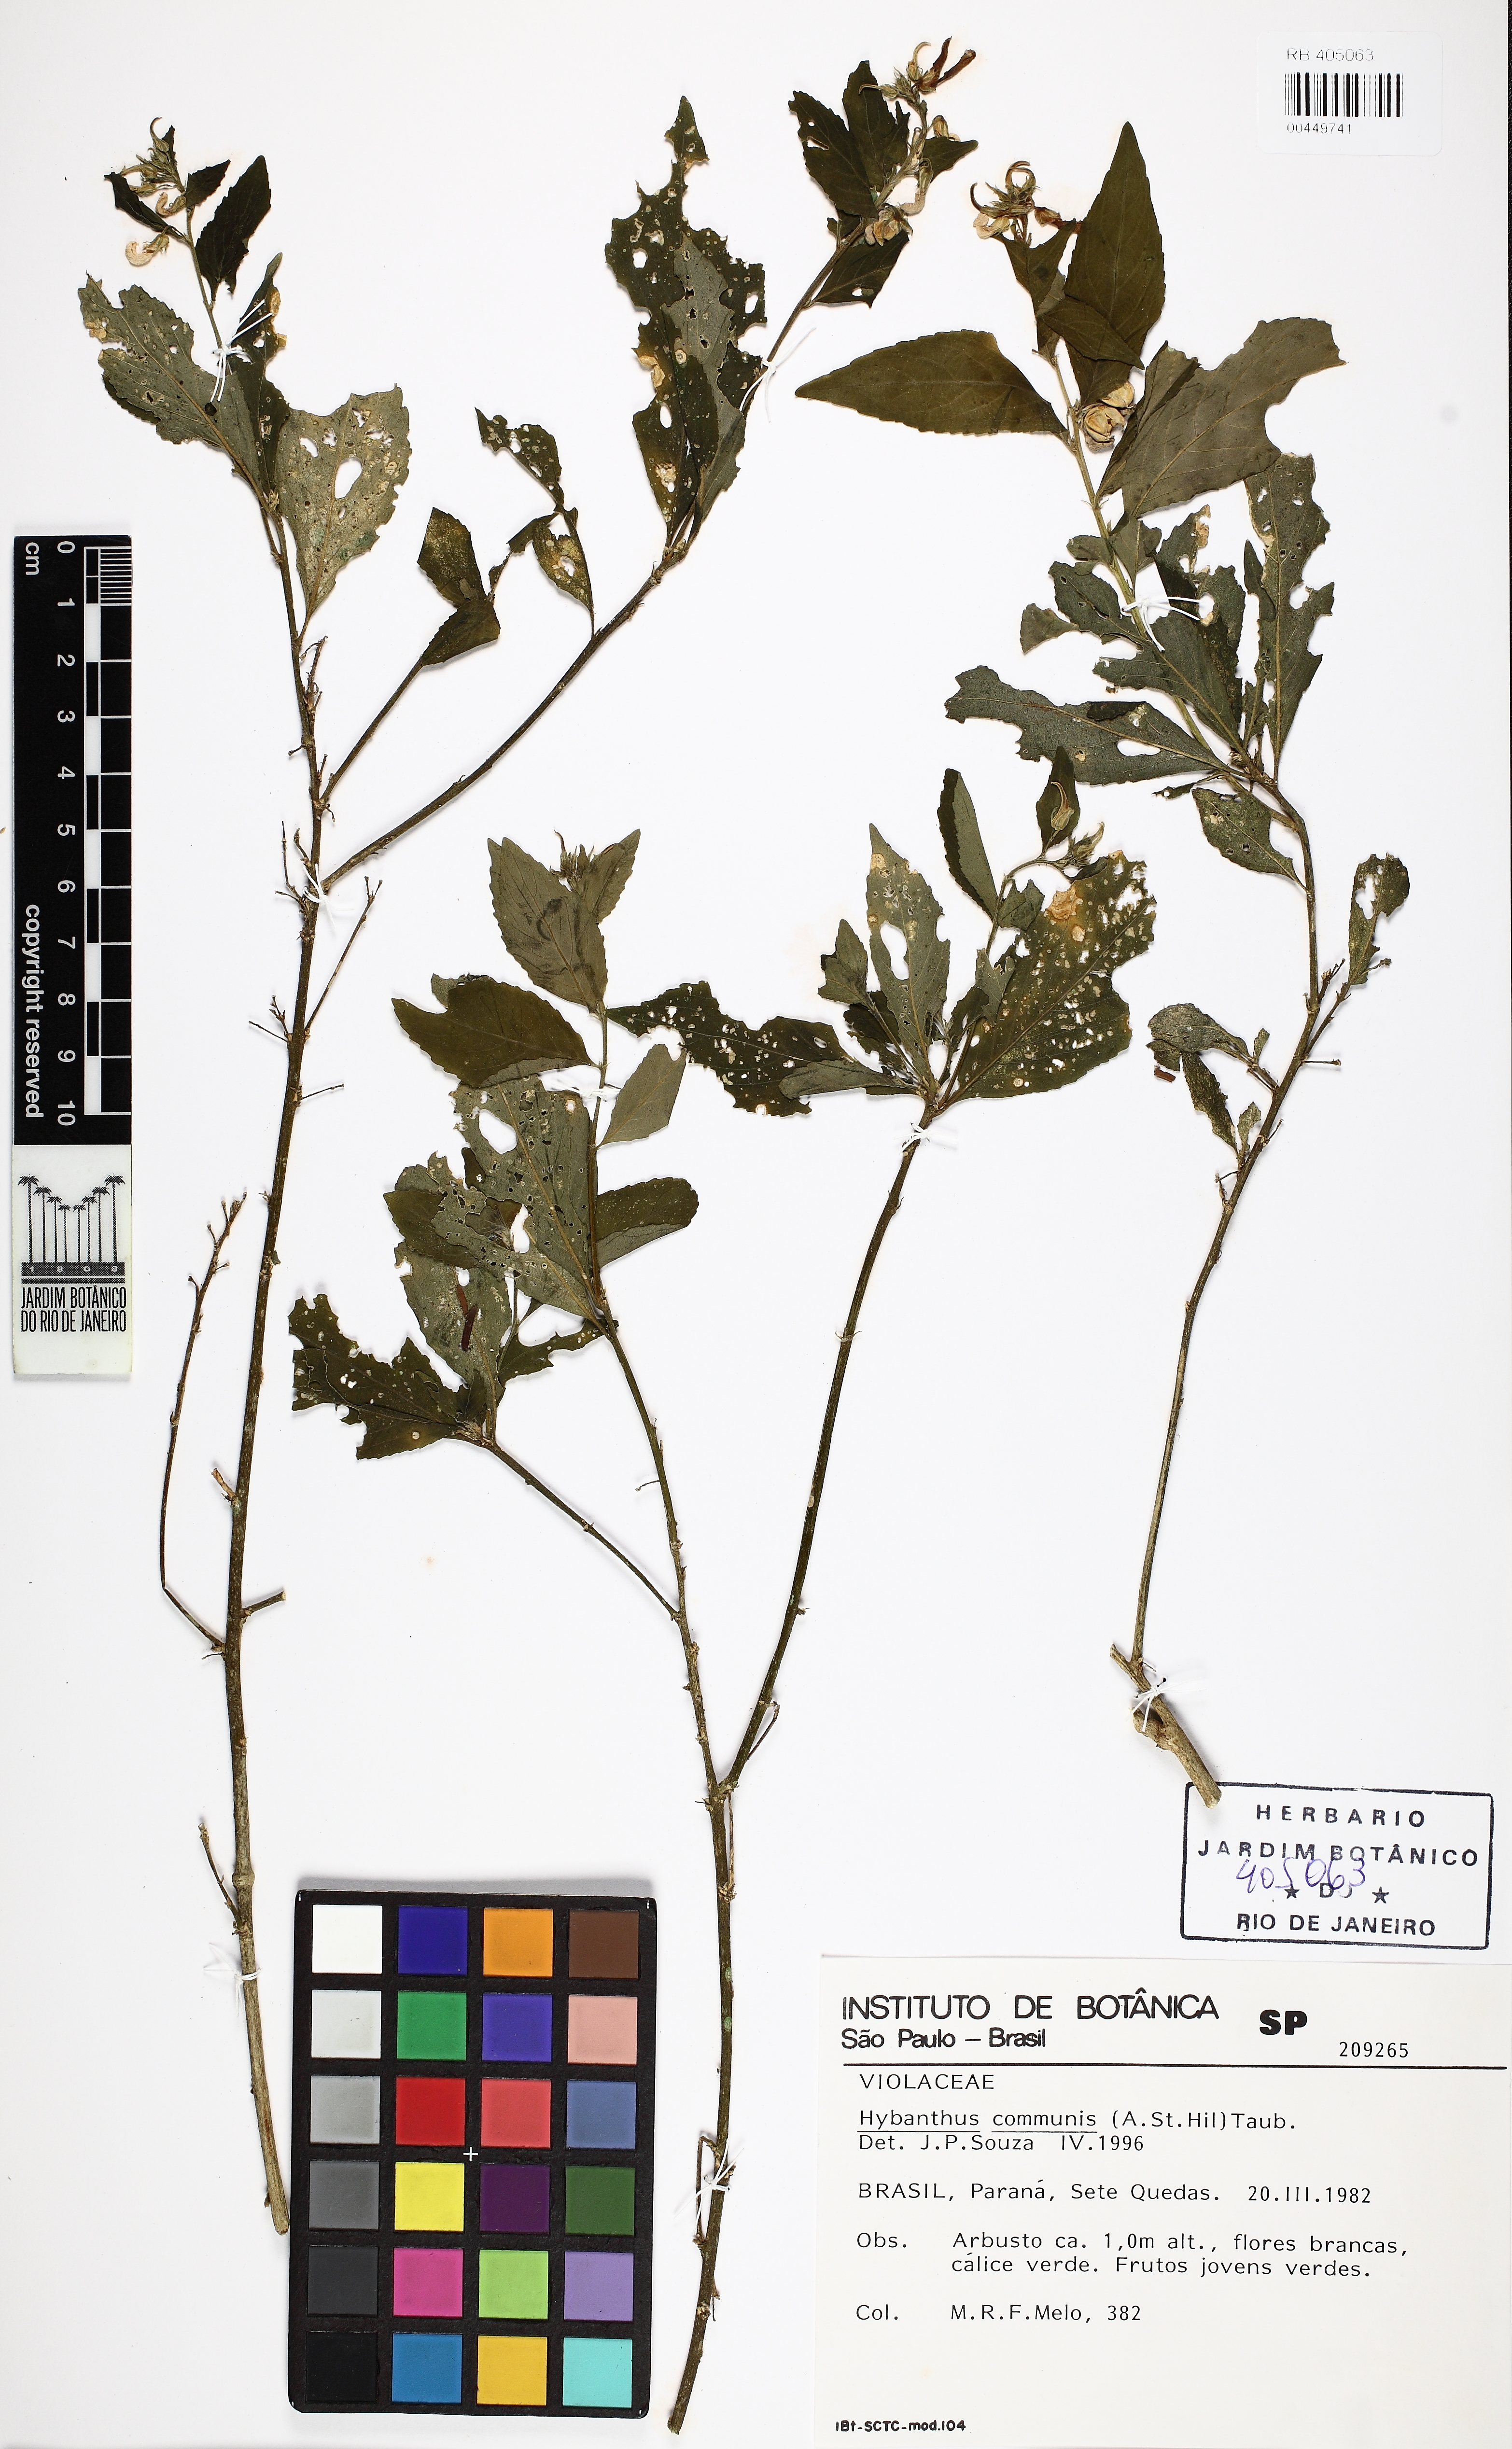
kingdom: Plantae
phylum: Tracheophyta
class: Magnoliopsida
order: Malpighiales
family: Violaceae
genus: Pombalia
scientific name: Pombalia communis
